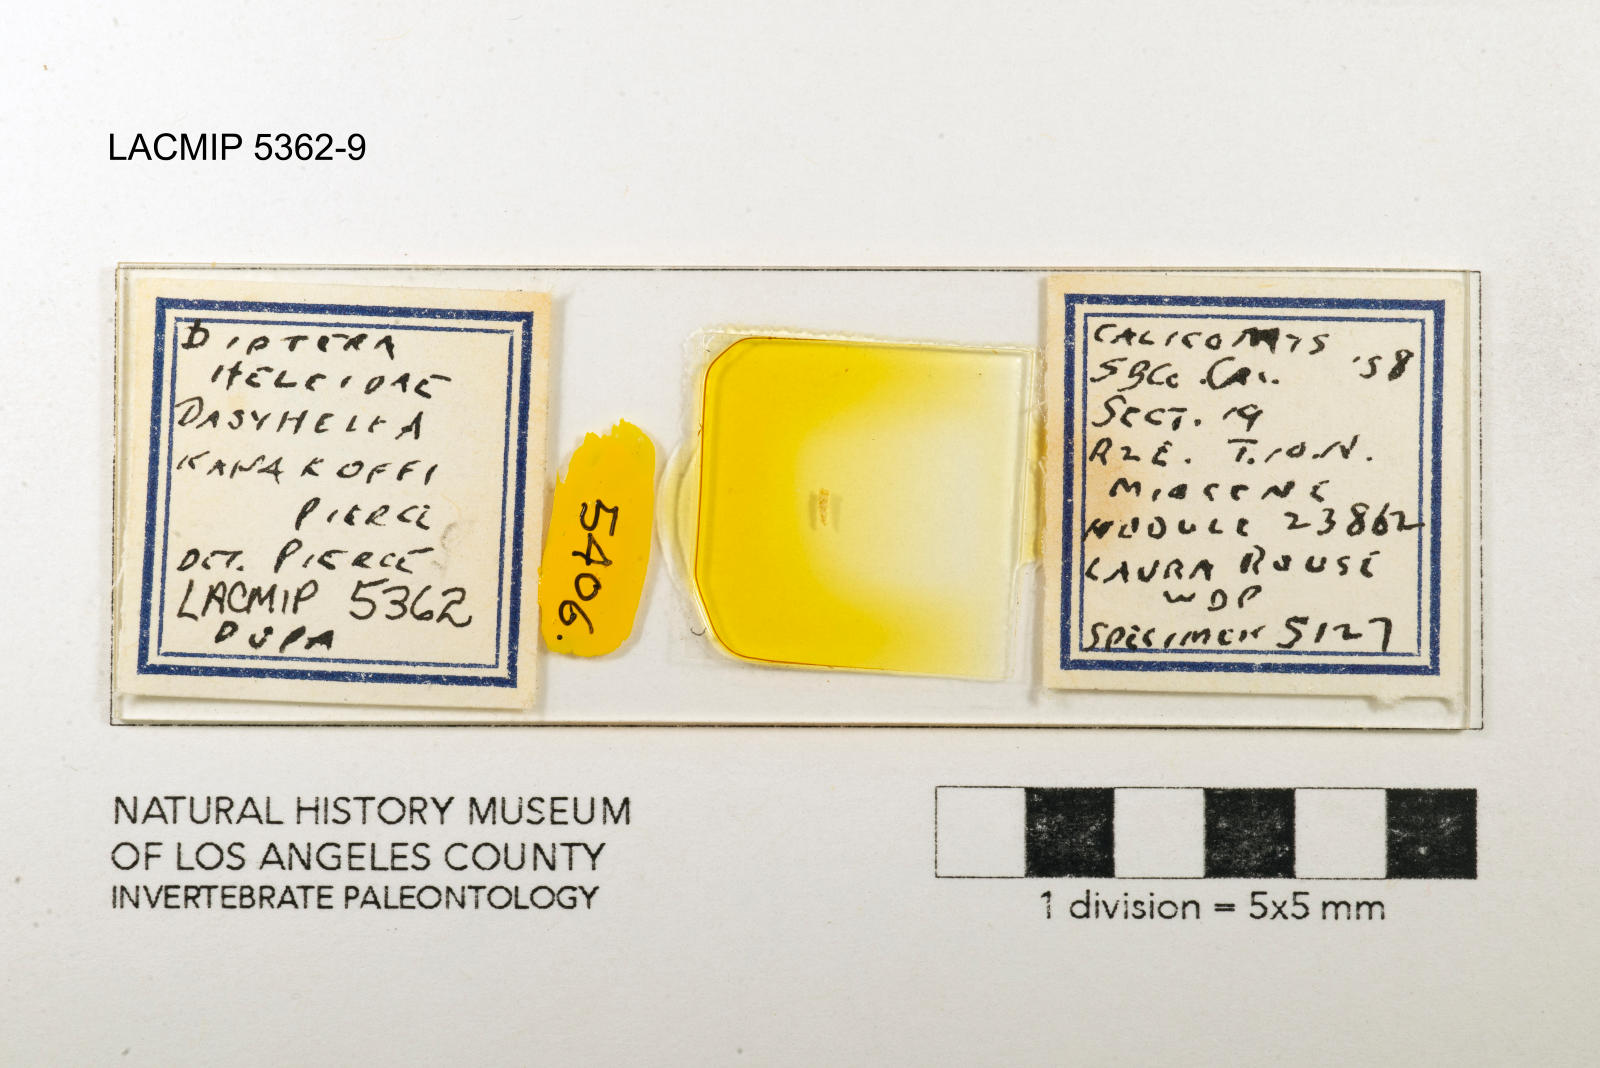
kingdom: Animalia
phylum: Arthropoda
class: Insecta
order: Diptera
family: Ceratopogonidae
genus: Dasyhelea
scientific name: Dasyhelea kanakoffi
